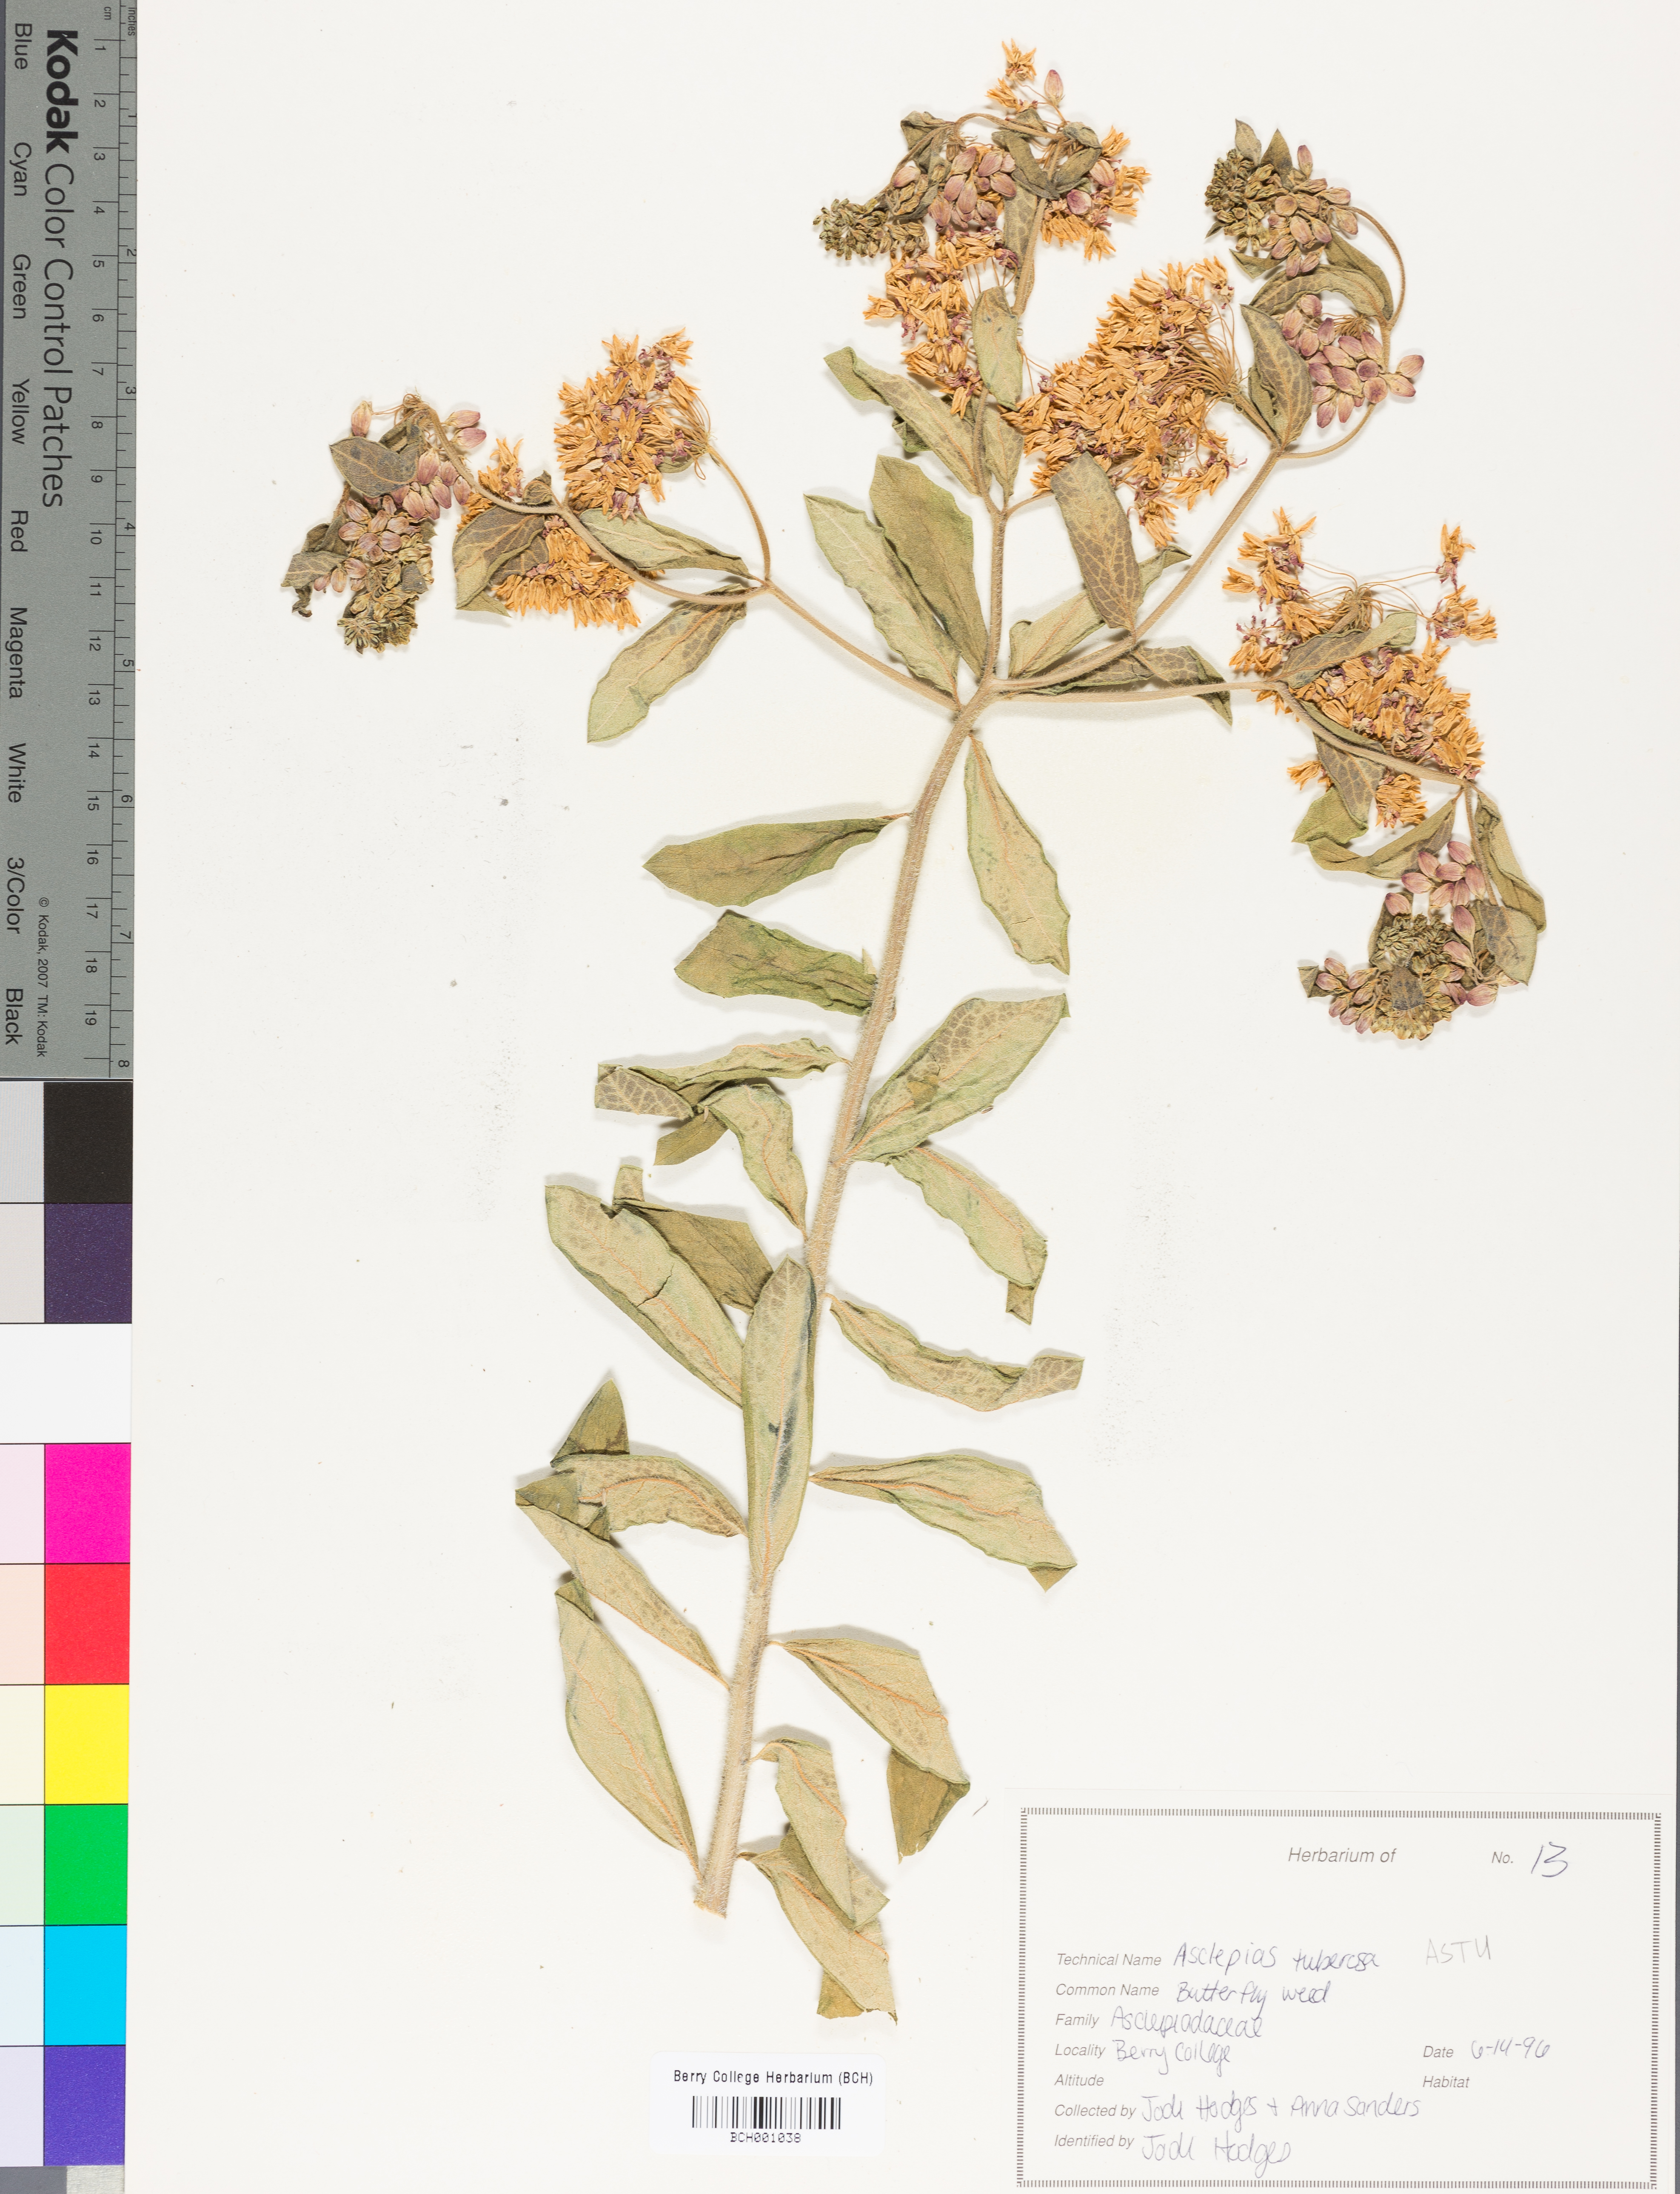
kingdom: Plantae
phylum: Tracheophyta
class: Magnoliopsida
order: Gentianales
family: Apocynaceae
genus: Asclepias
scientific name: Asclepias tuberosa
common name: Butterfly milkweed
